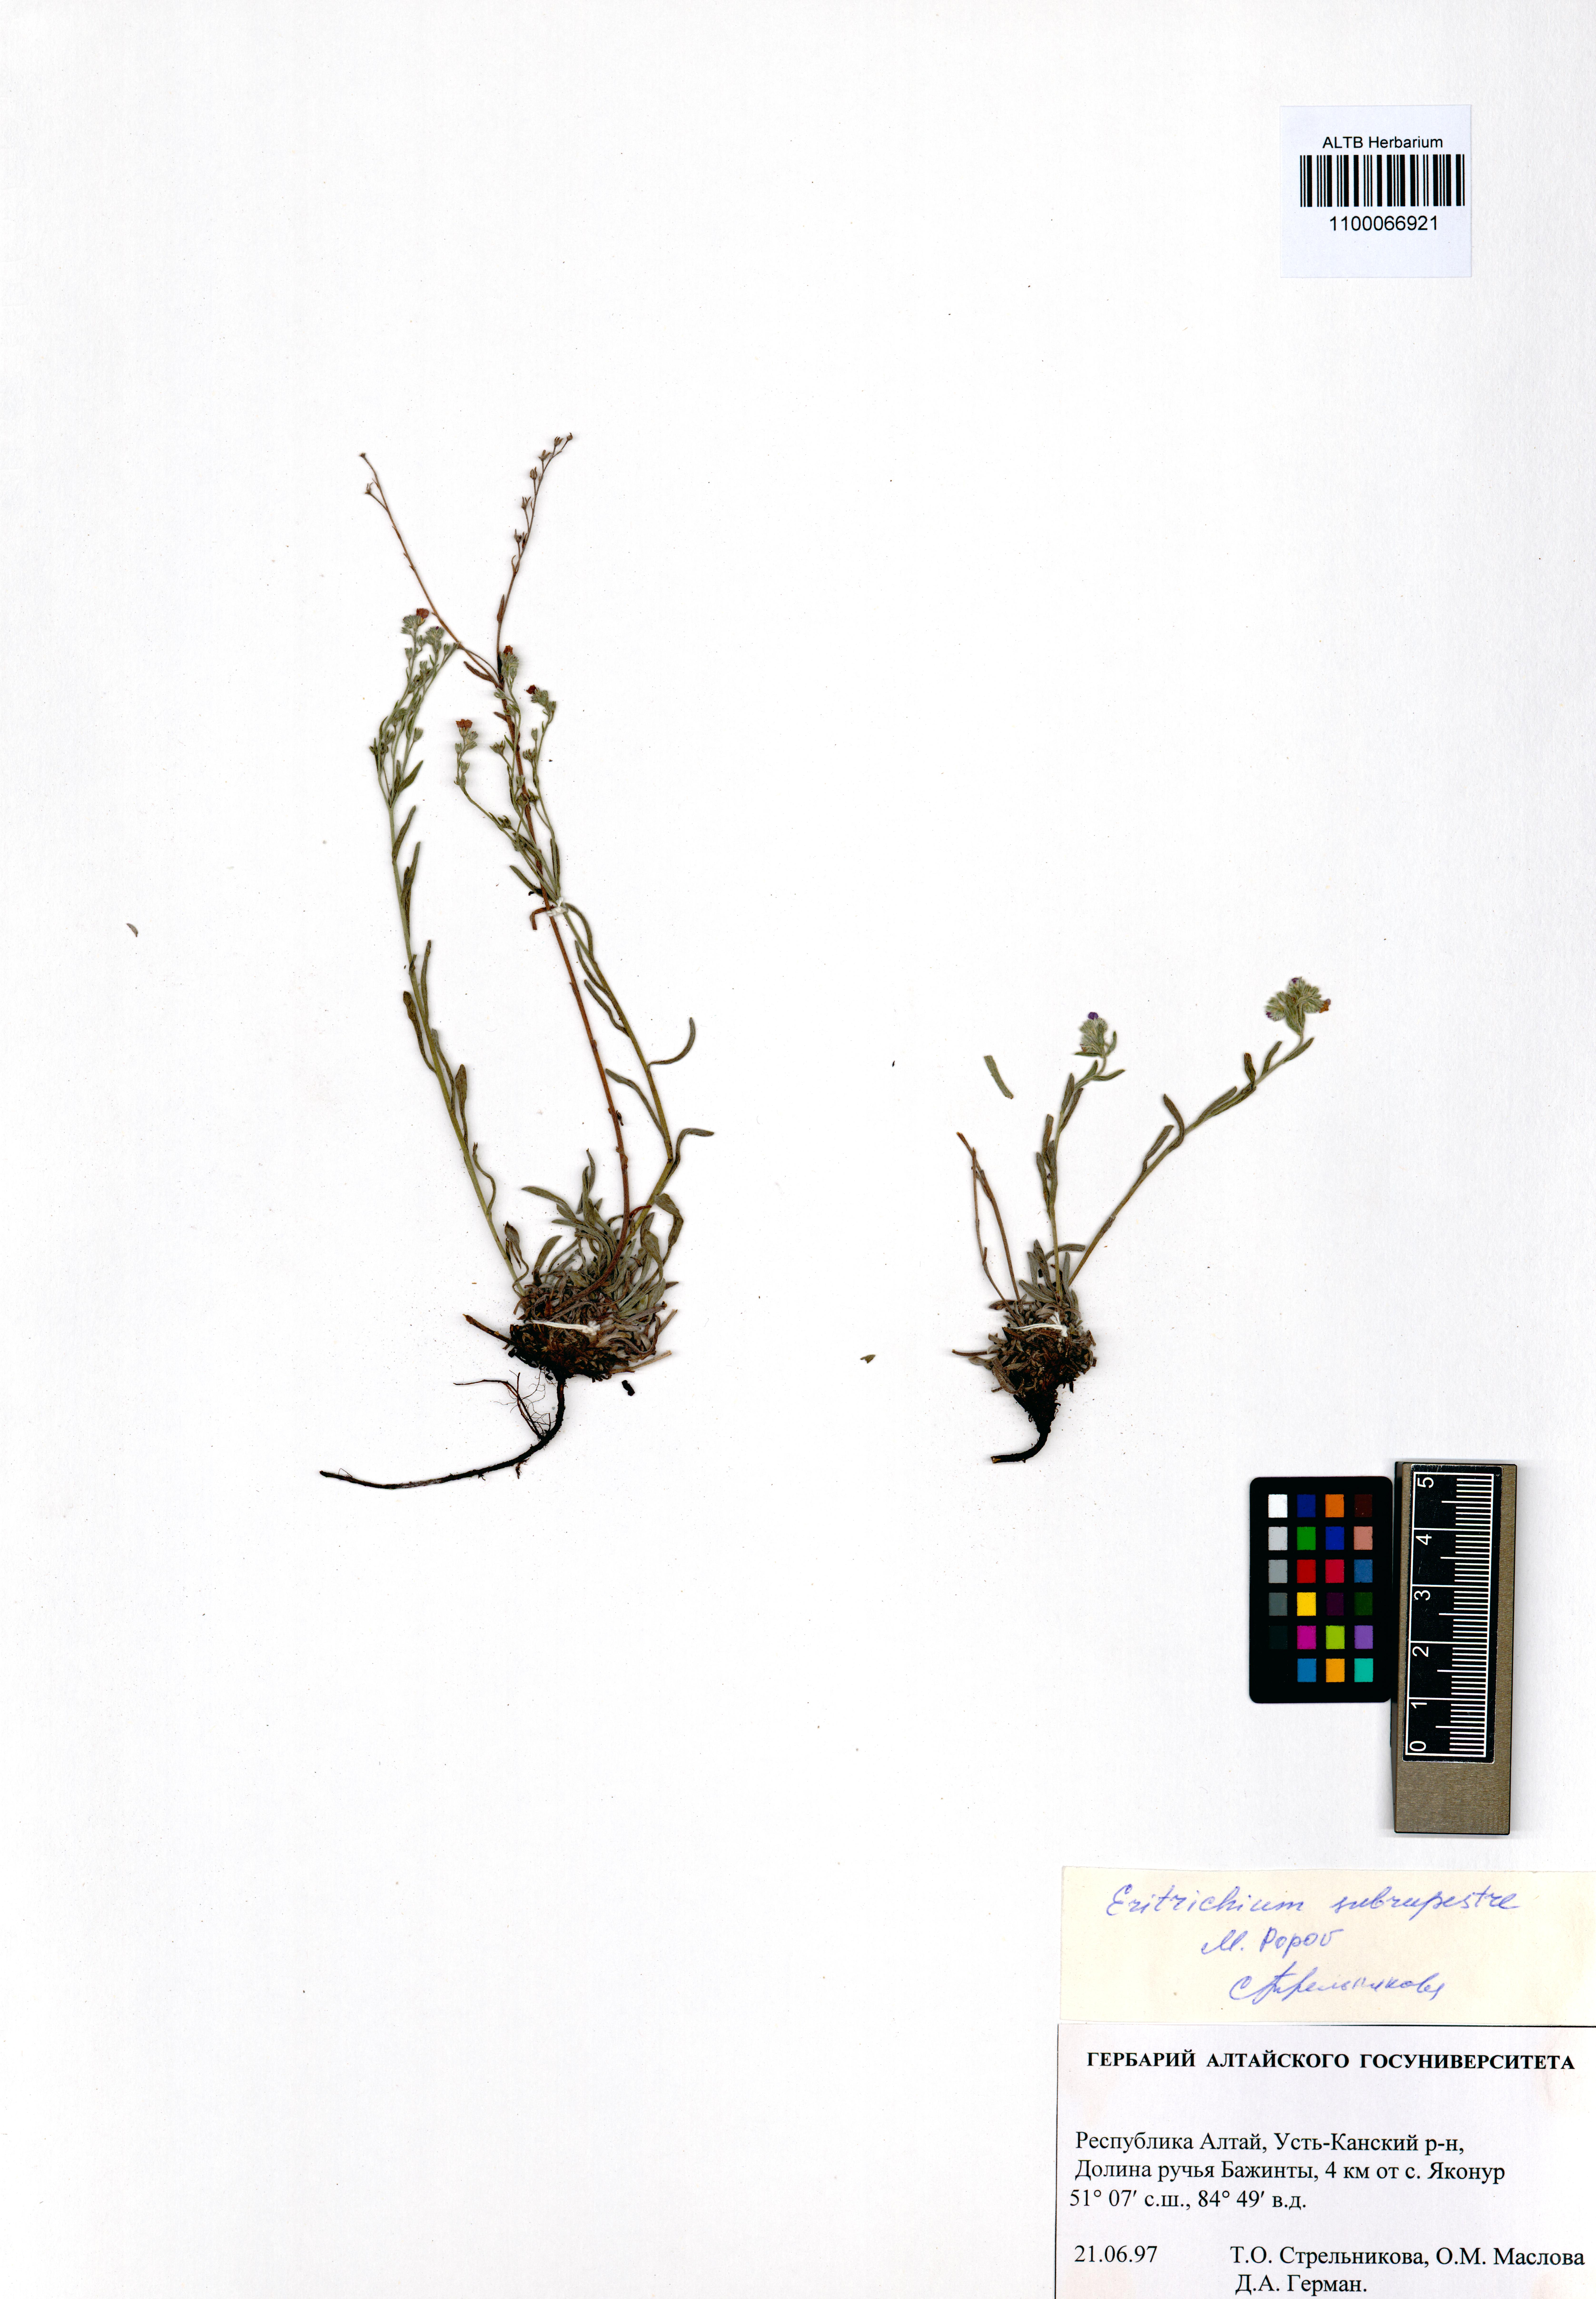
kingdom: Plantae
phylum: Tracheophyta
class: Magnoliopsida
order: Boraginales
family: Boraginaceae
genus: Eritrichium
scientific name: Eritrichium pauciflorum
